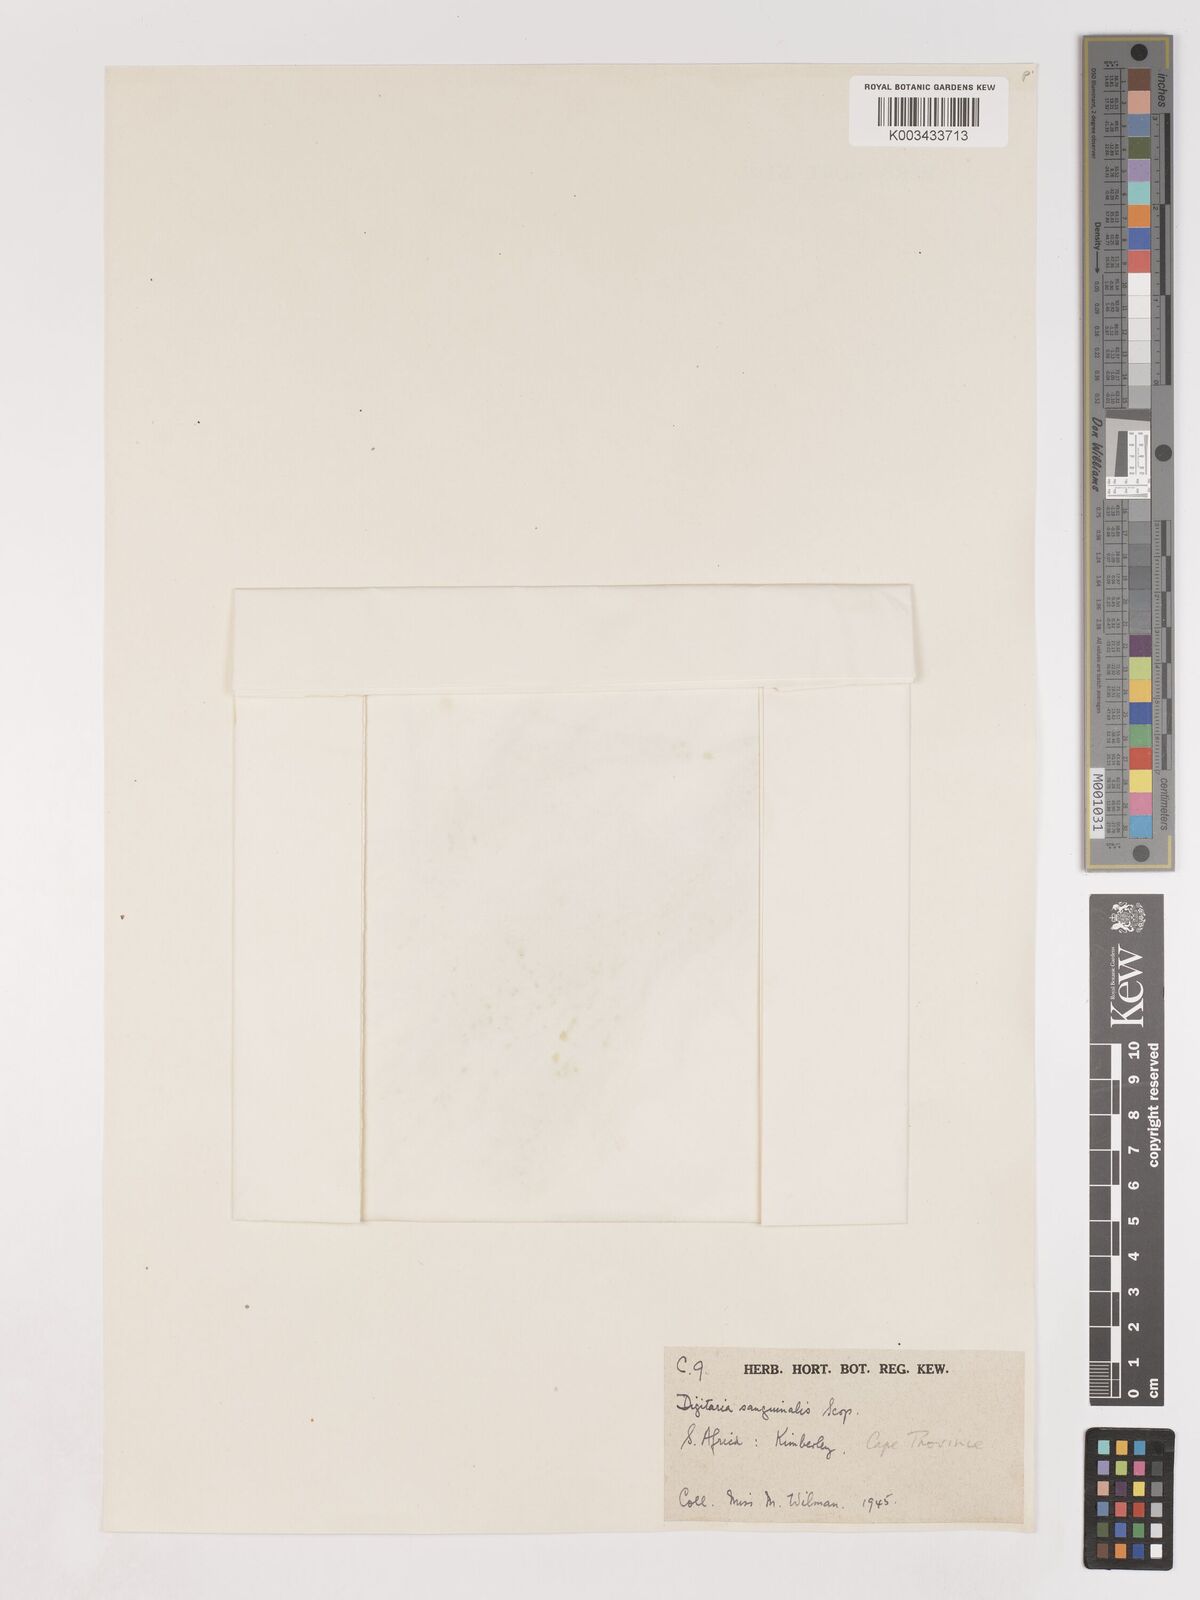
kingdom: Plantae
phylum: Tracheophyta
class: Liliopsida
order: Poales
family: Poaceae
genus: Digitaria
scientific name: Digitaria sanguinalis
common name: Hairy crabgrass
